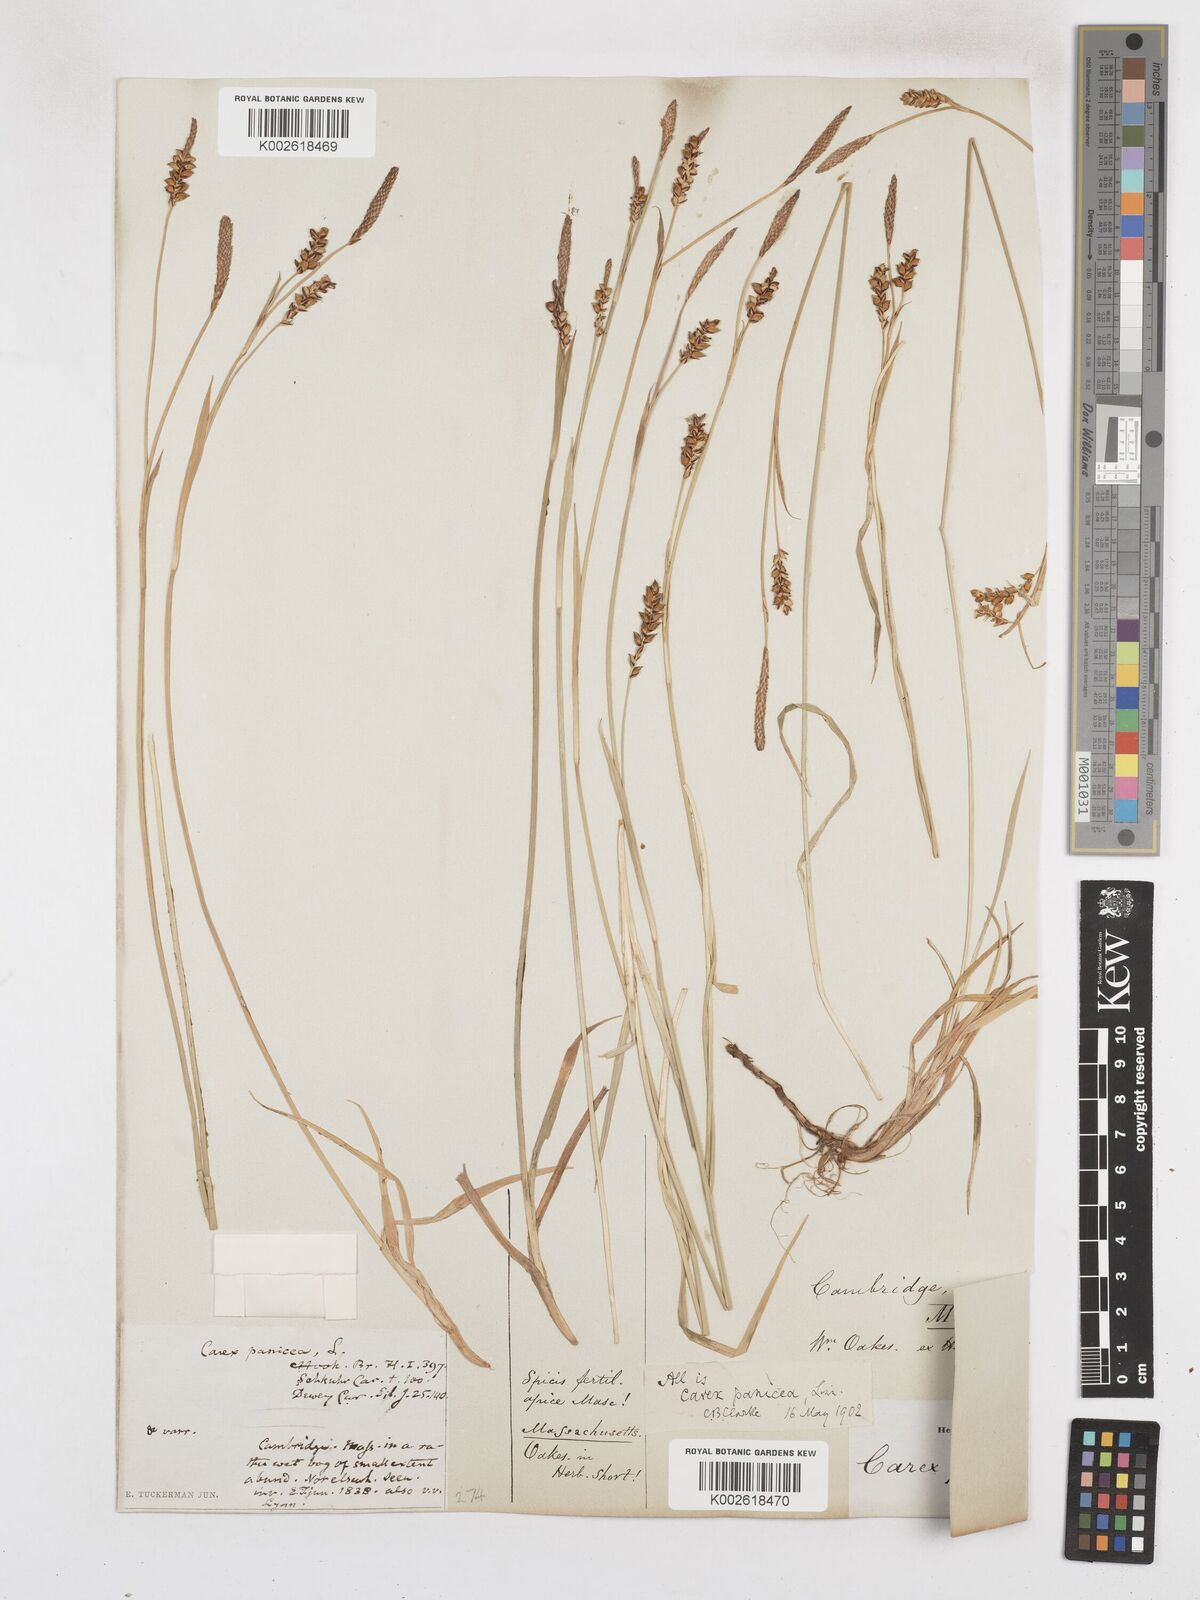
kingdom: Plantae
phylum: Tracheophyta
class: Liliopsida
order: Poales
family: Cyperaceae
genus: Carex
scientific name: Carex panicea
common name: Carnation sedge
